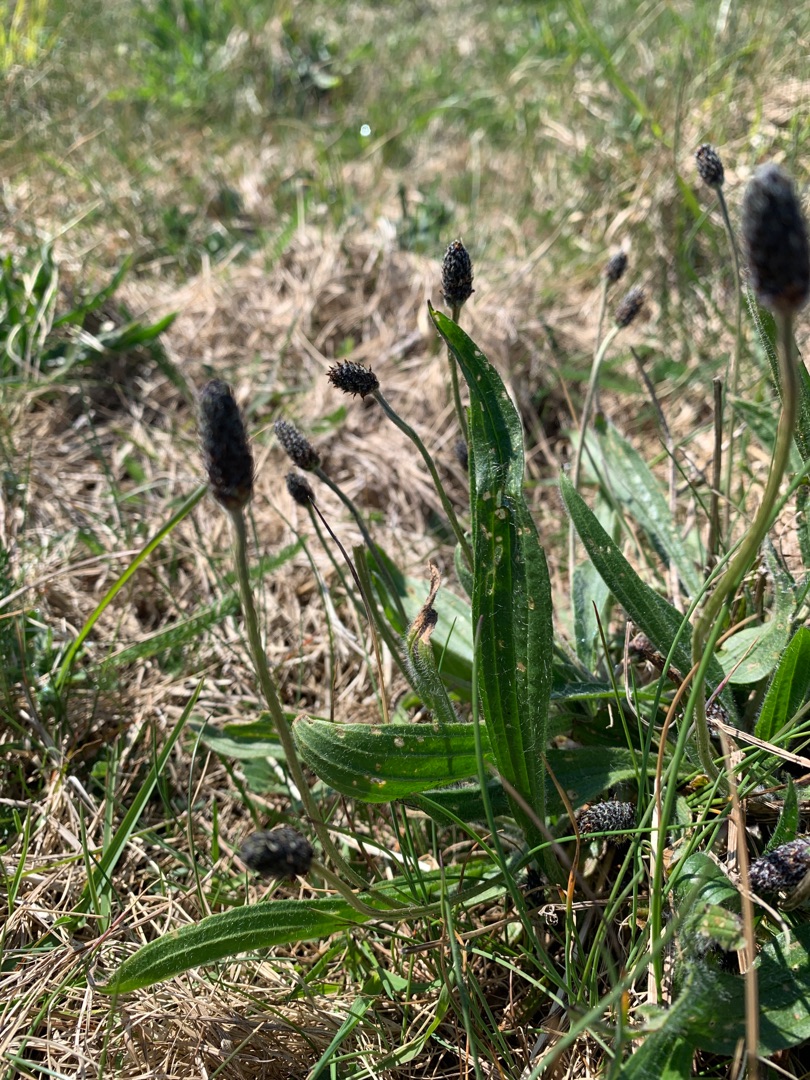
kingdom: Plantae
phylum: Tracheophyta
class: Magnoliopsida
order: Lamiales
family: Plantaginaceae
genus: Plantago
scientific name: Plantago lanceolata
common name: Lancet-vejbred
